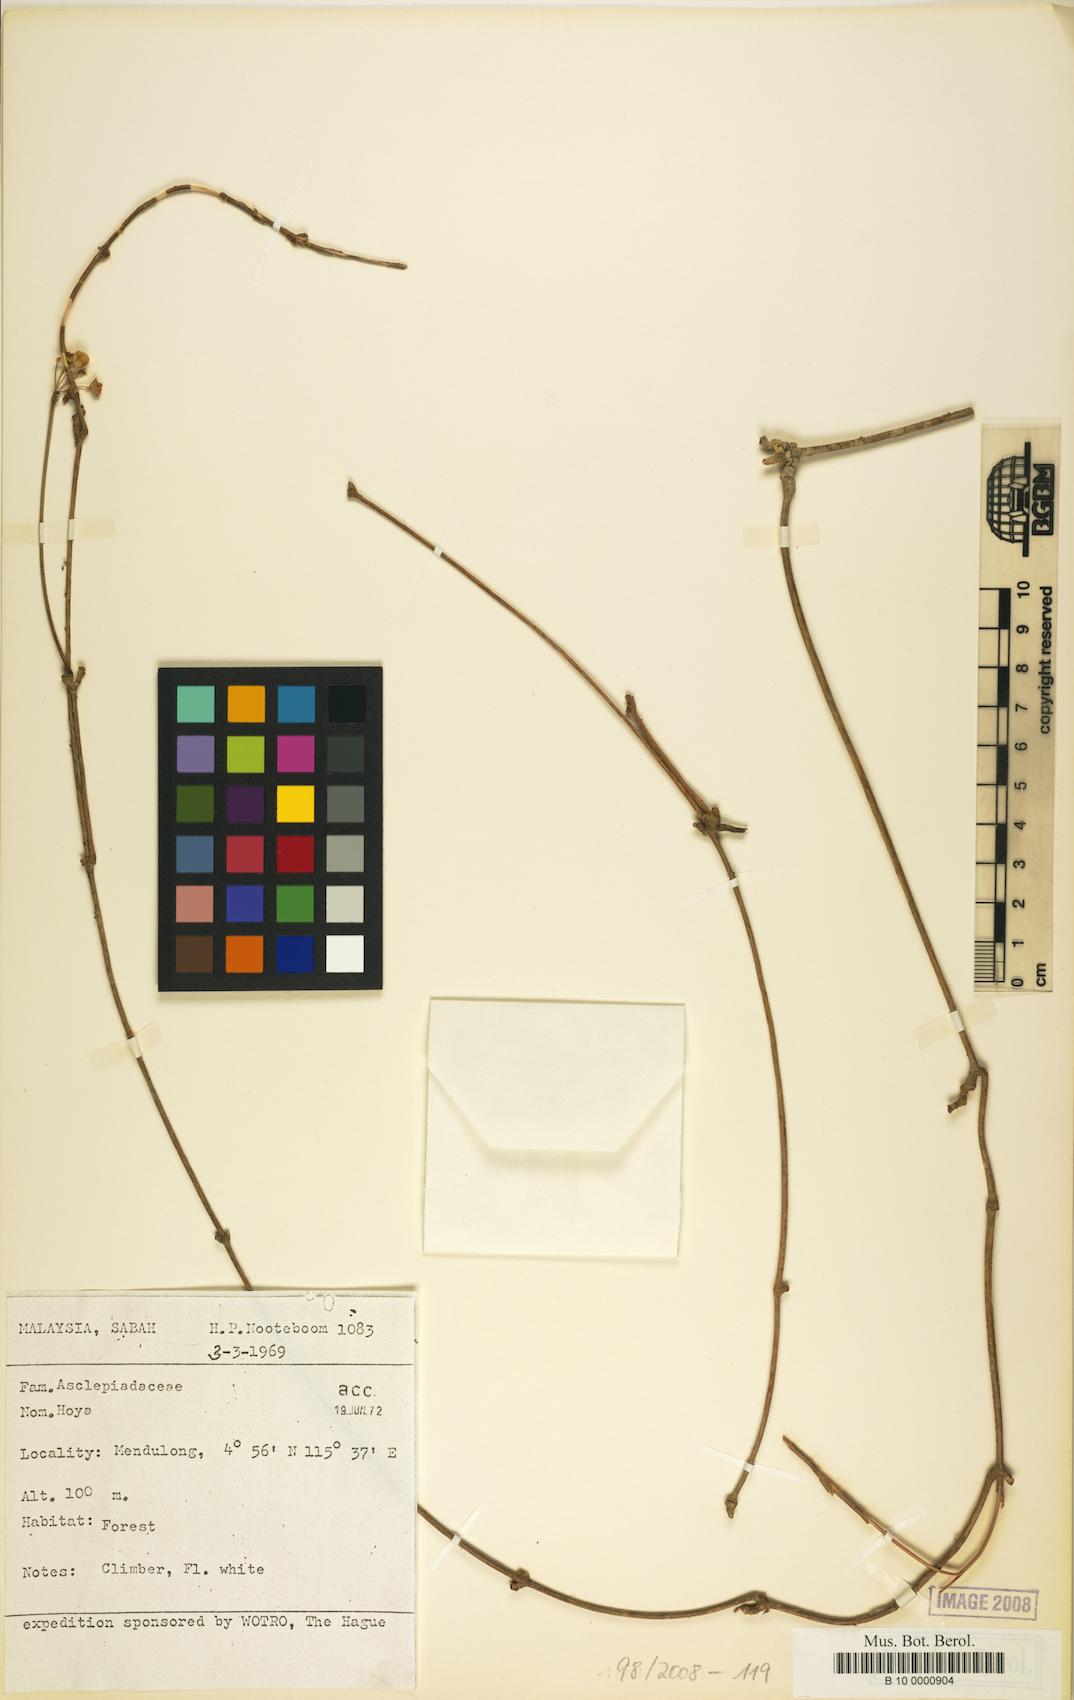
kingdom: Plantae
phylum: Tracheophyta
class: Magnoliopsida
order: Gentianales
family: Apocynaceae
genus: Hoya
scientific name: Hoya
